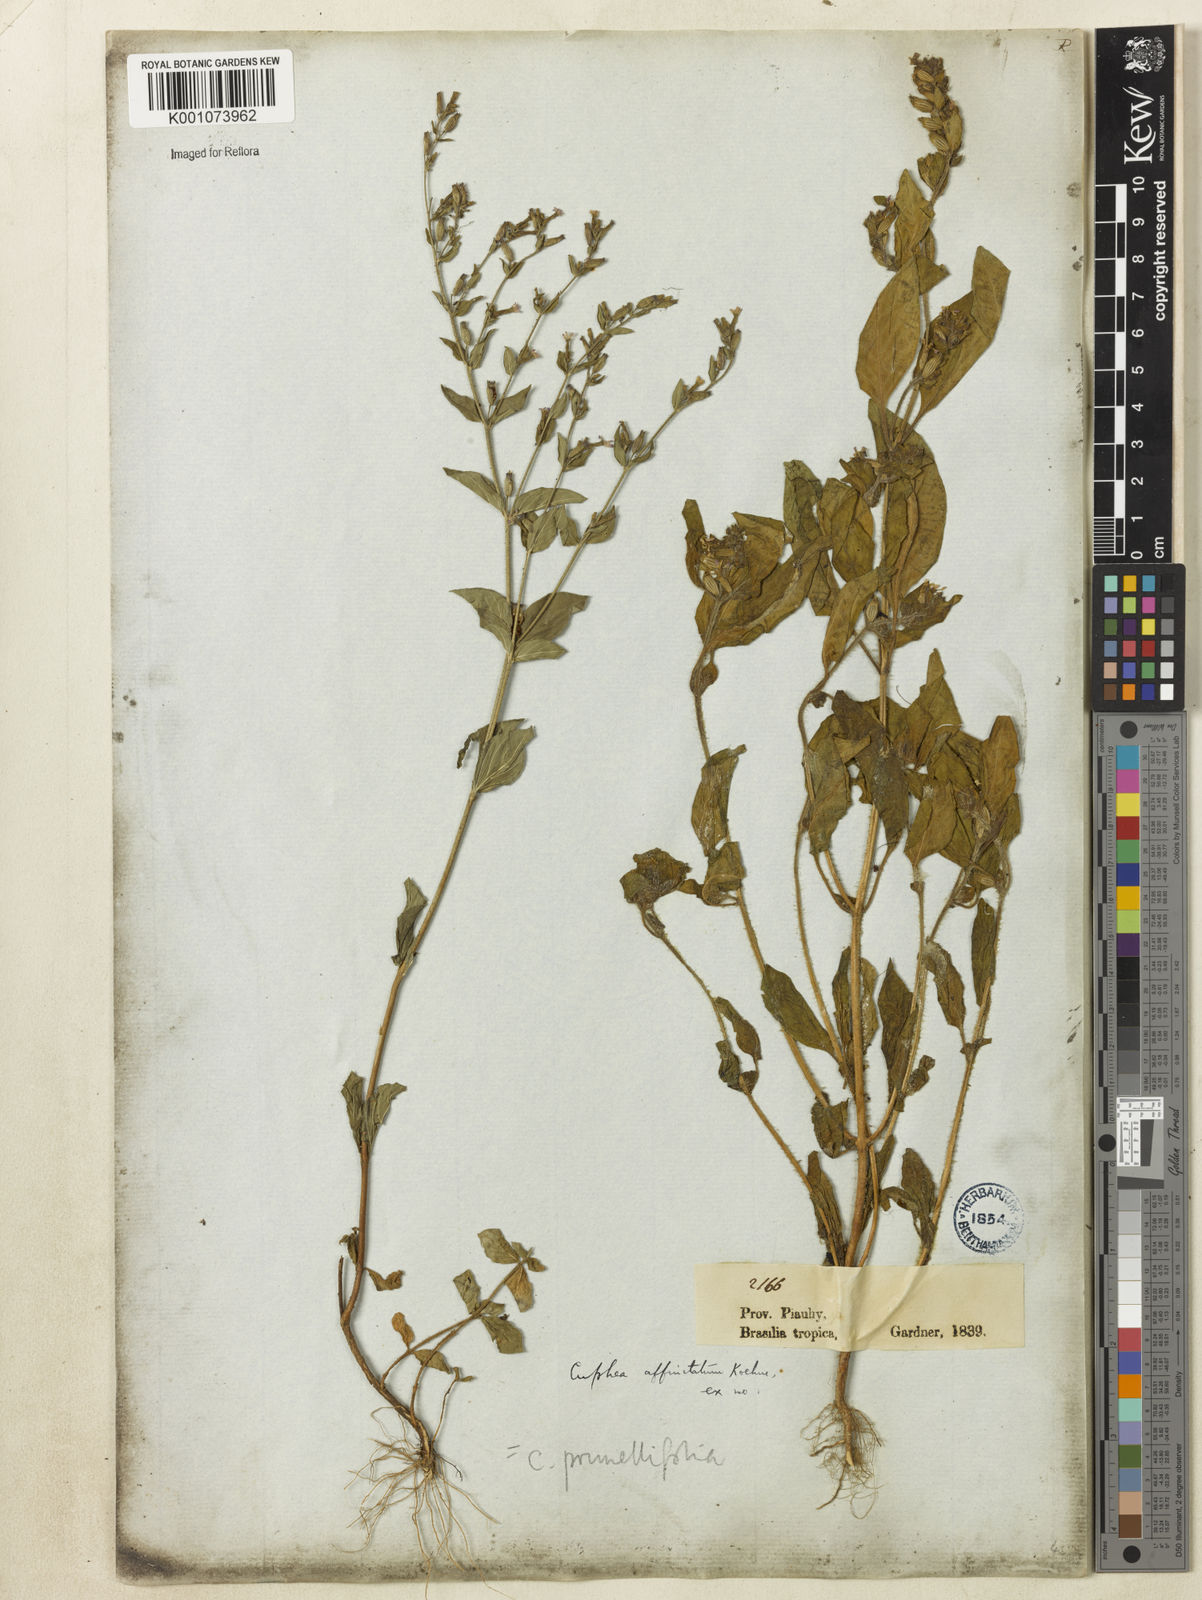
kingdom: Plantae
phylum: Tracheophyta
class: Magnoliopsida
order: Myrtales
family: Lythraceae
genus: Cuphea
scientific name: Cuphea
